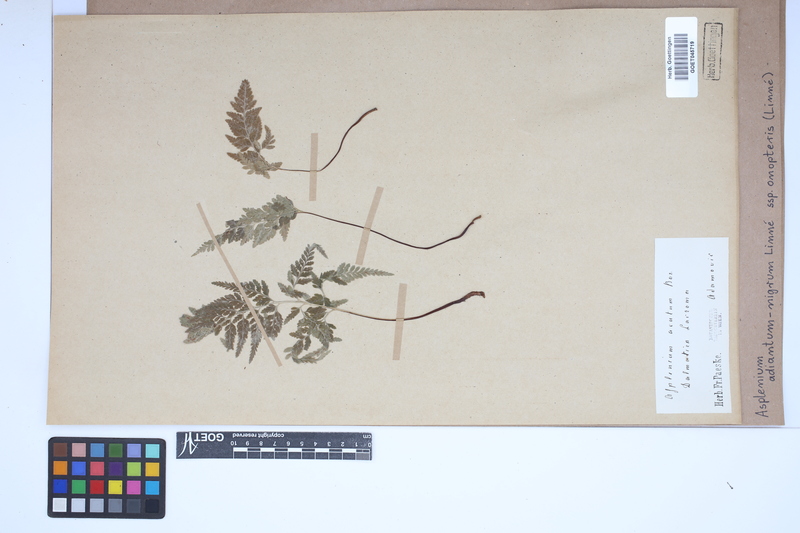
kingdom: Plantae
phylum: Tracheophyta
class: Polypodiopsida
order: Polypodiales
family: Aspleniaceae
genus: Asplenium
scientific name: Asplenium onopteris
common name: Irish spleenwort
